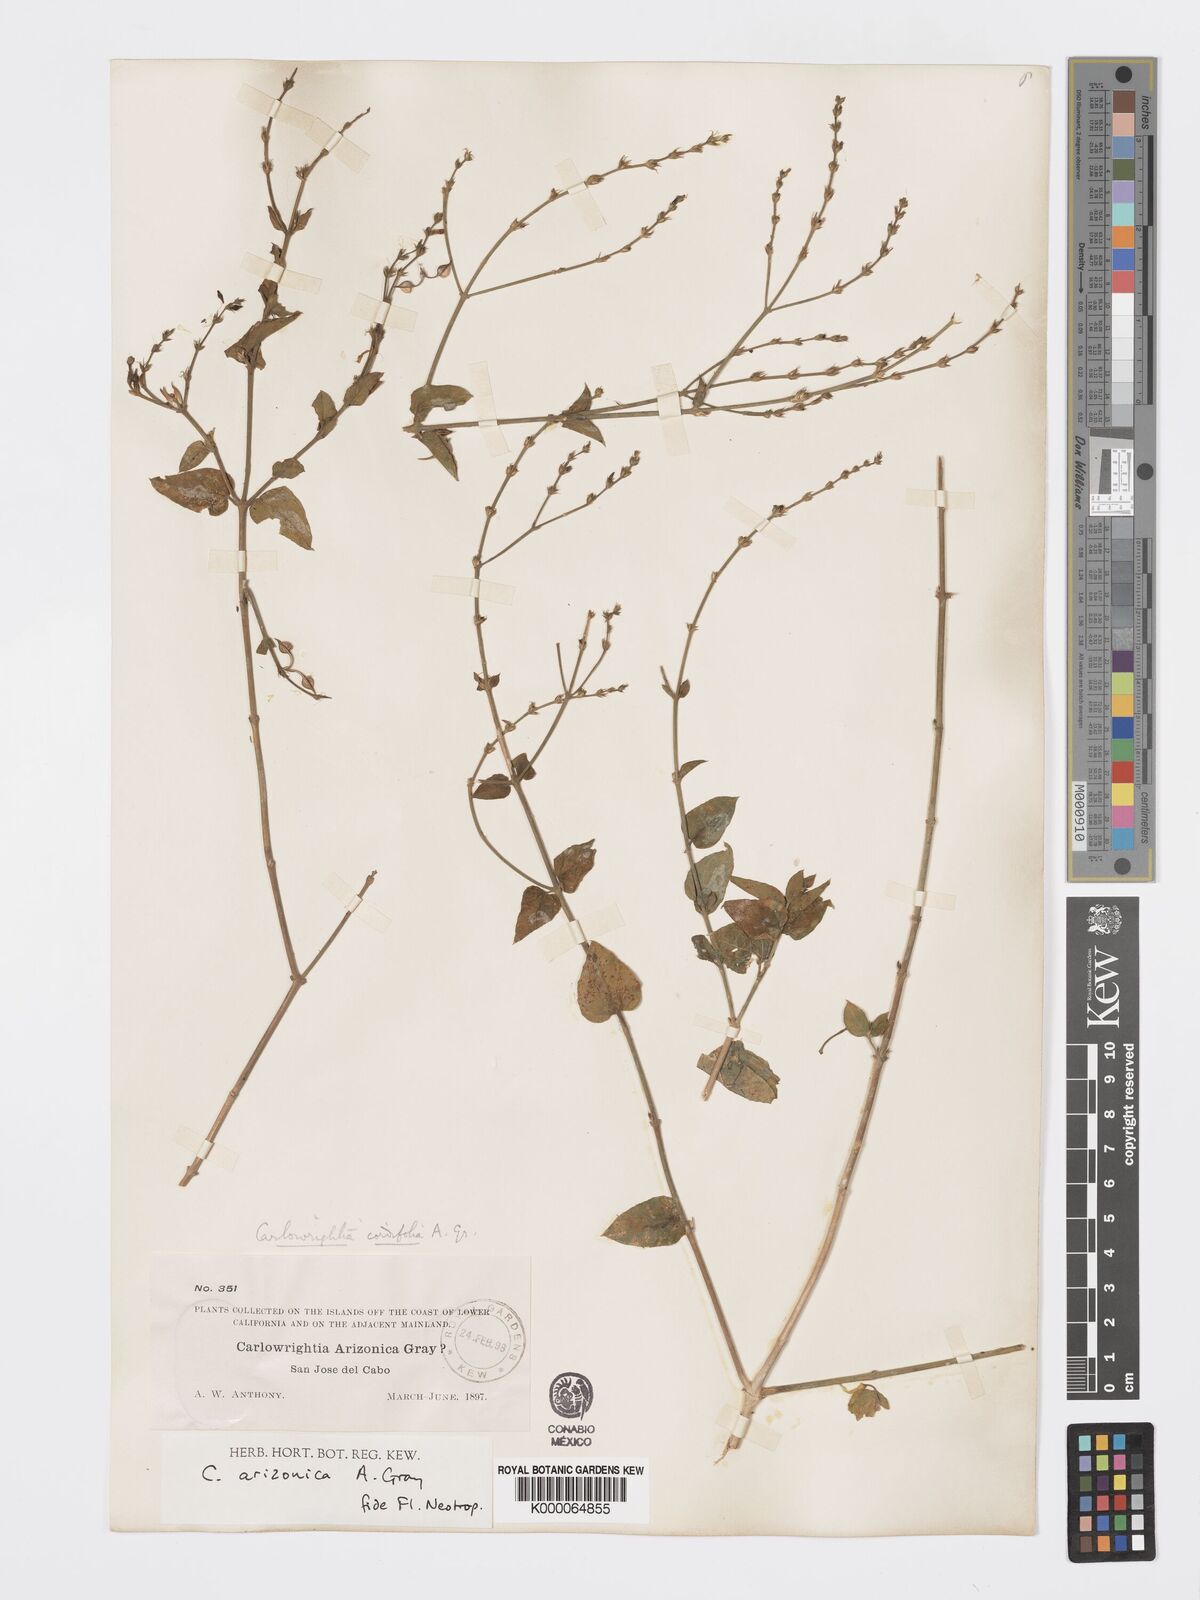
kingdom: Plantae
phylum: Tracheophyta
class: Magnoliopsida
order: Lamiales
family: Acanthaceae
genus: Carlowrightia
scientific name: Carlowrightia arizonica
